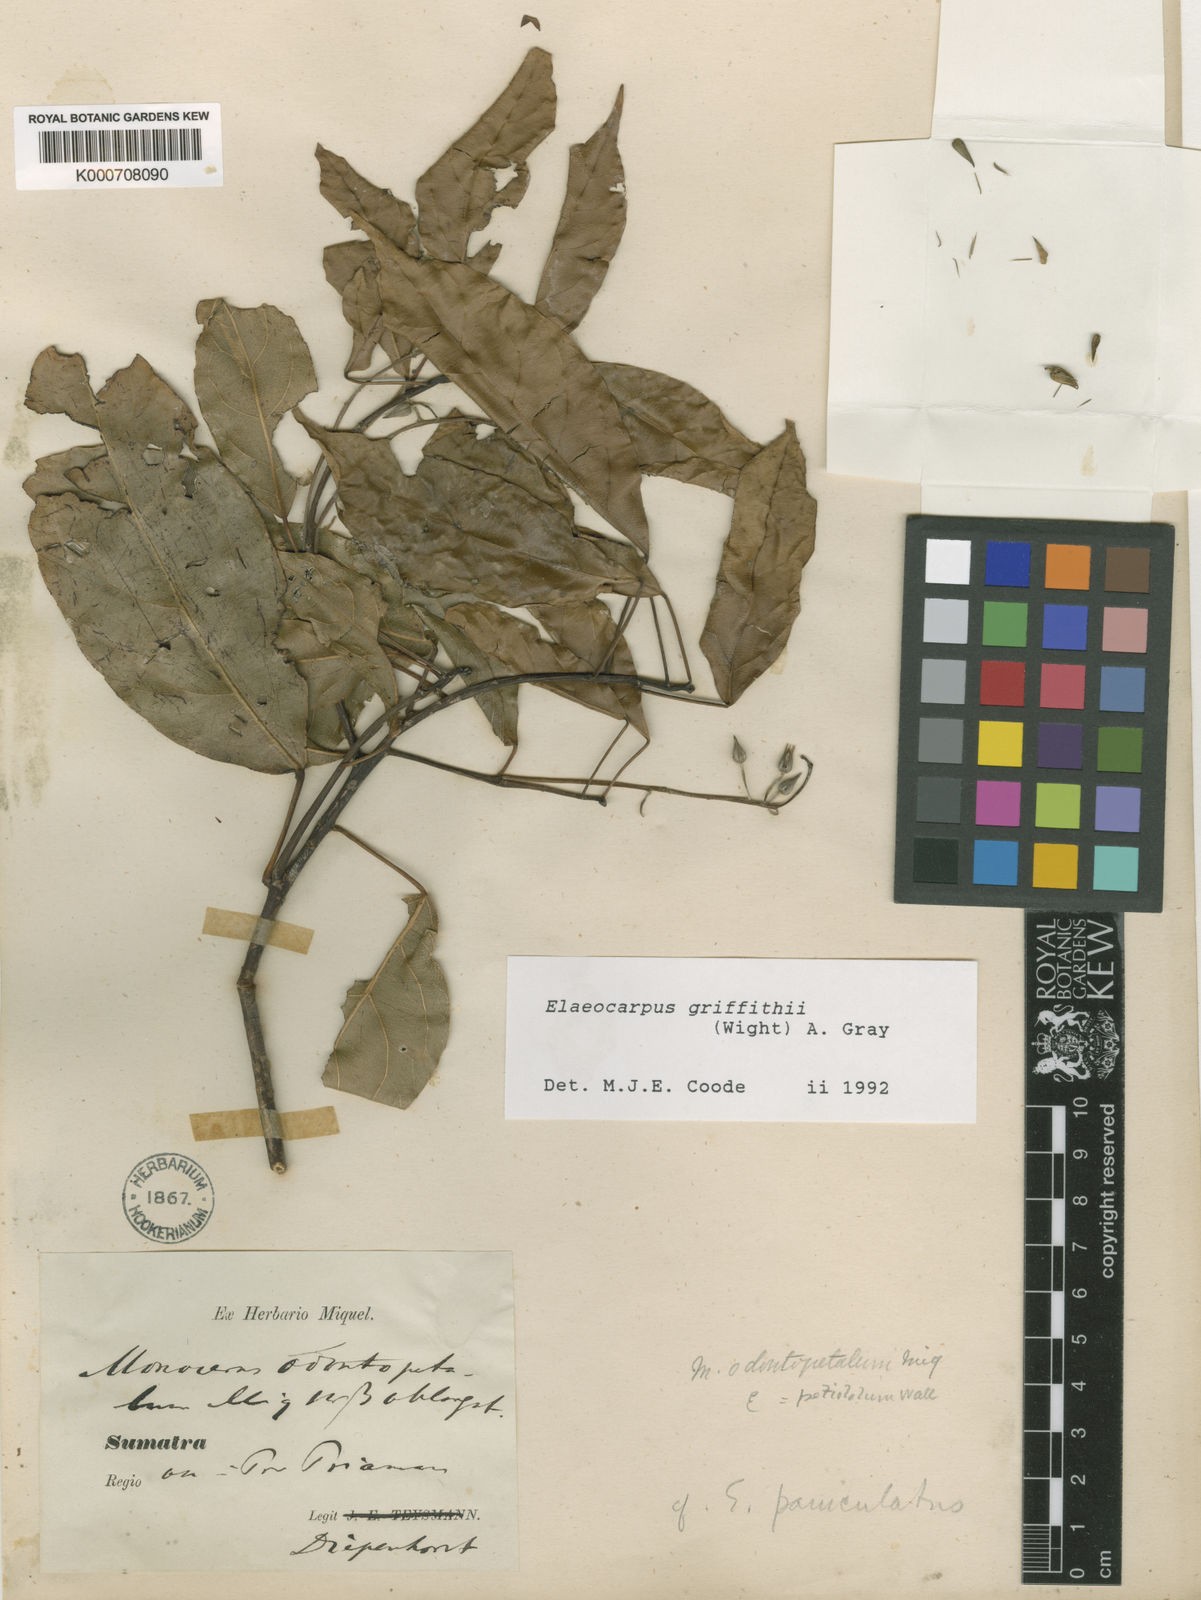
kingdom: Plantae
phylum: Tracheophyta
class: Magnoliopsida
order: Oxalidales
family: Elaeocarpaceae
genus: Elaeocarpus
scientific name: Elaeocarpus griffithii
